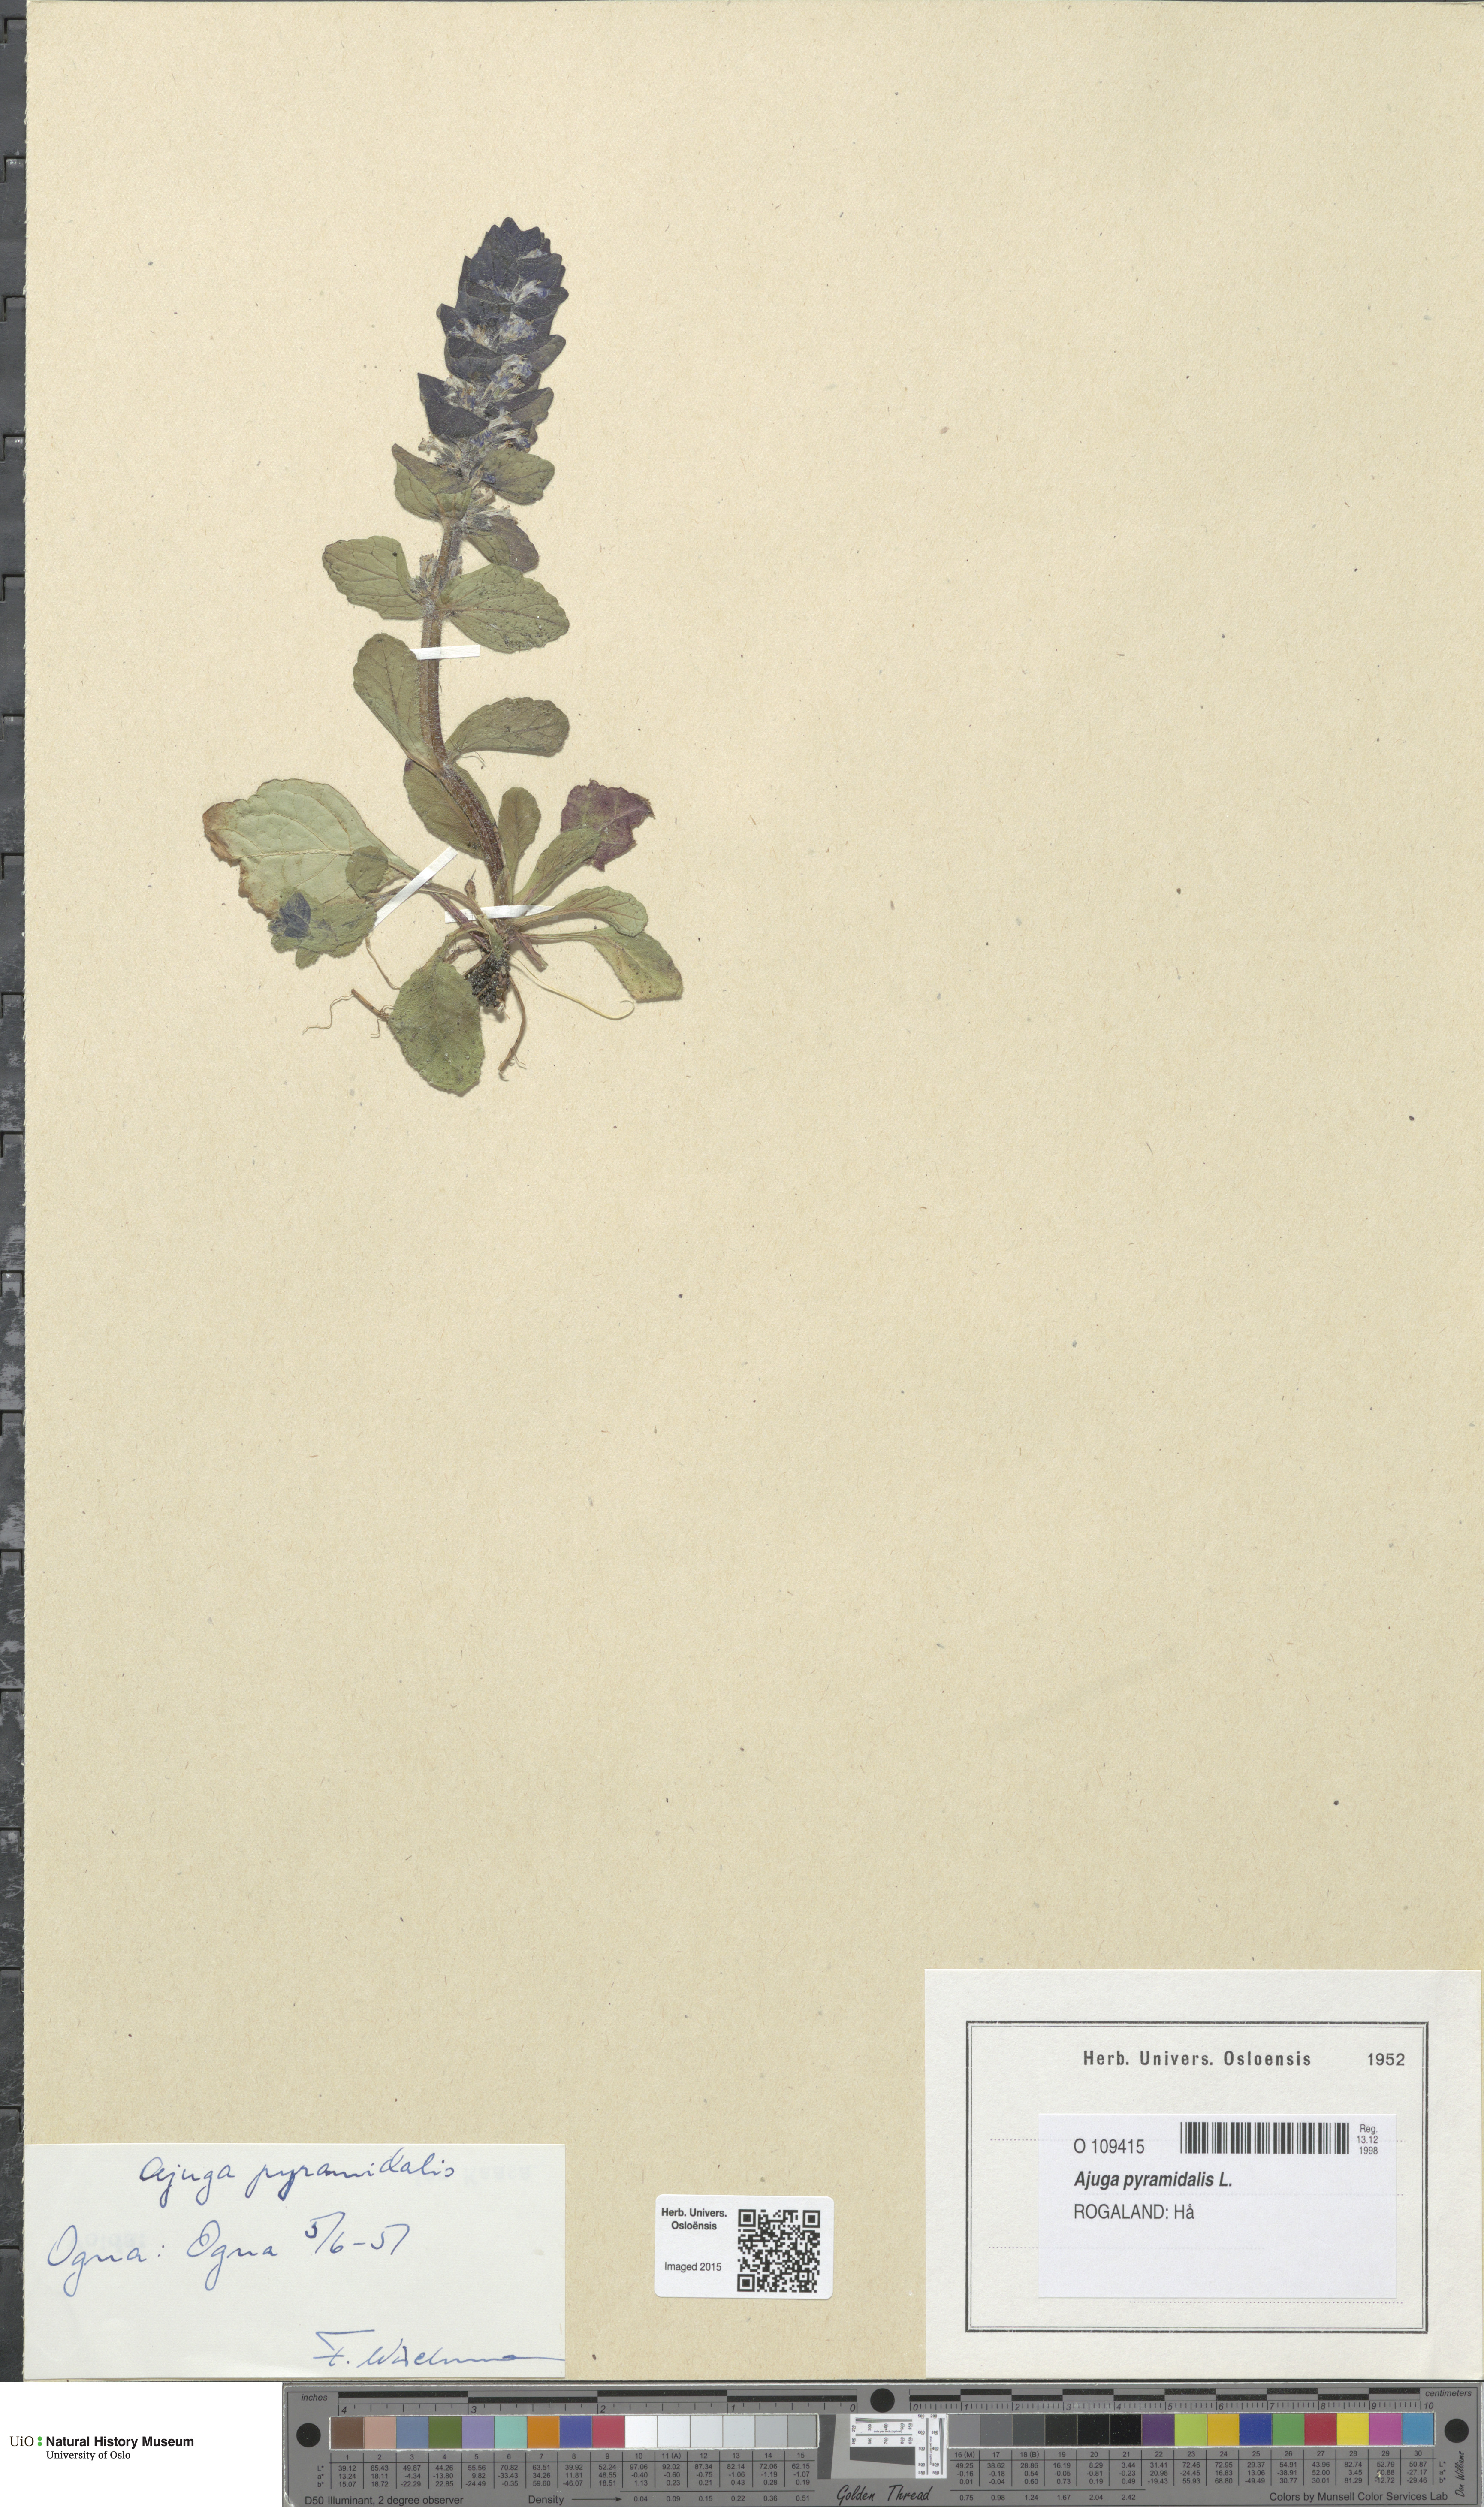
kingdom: Plantae
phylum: Tracheophyta
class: Magnoliopsida
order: Lamiales
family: Lamiaceae
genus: Ajuga
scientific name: Ajuga pyramidalis
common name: Pyramid bugle
